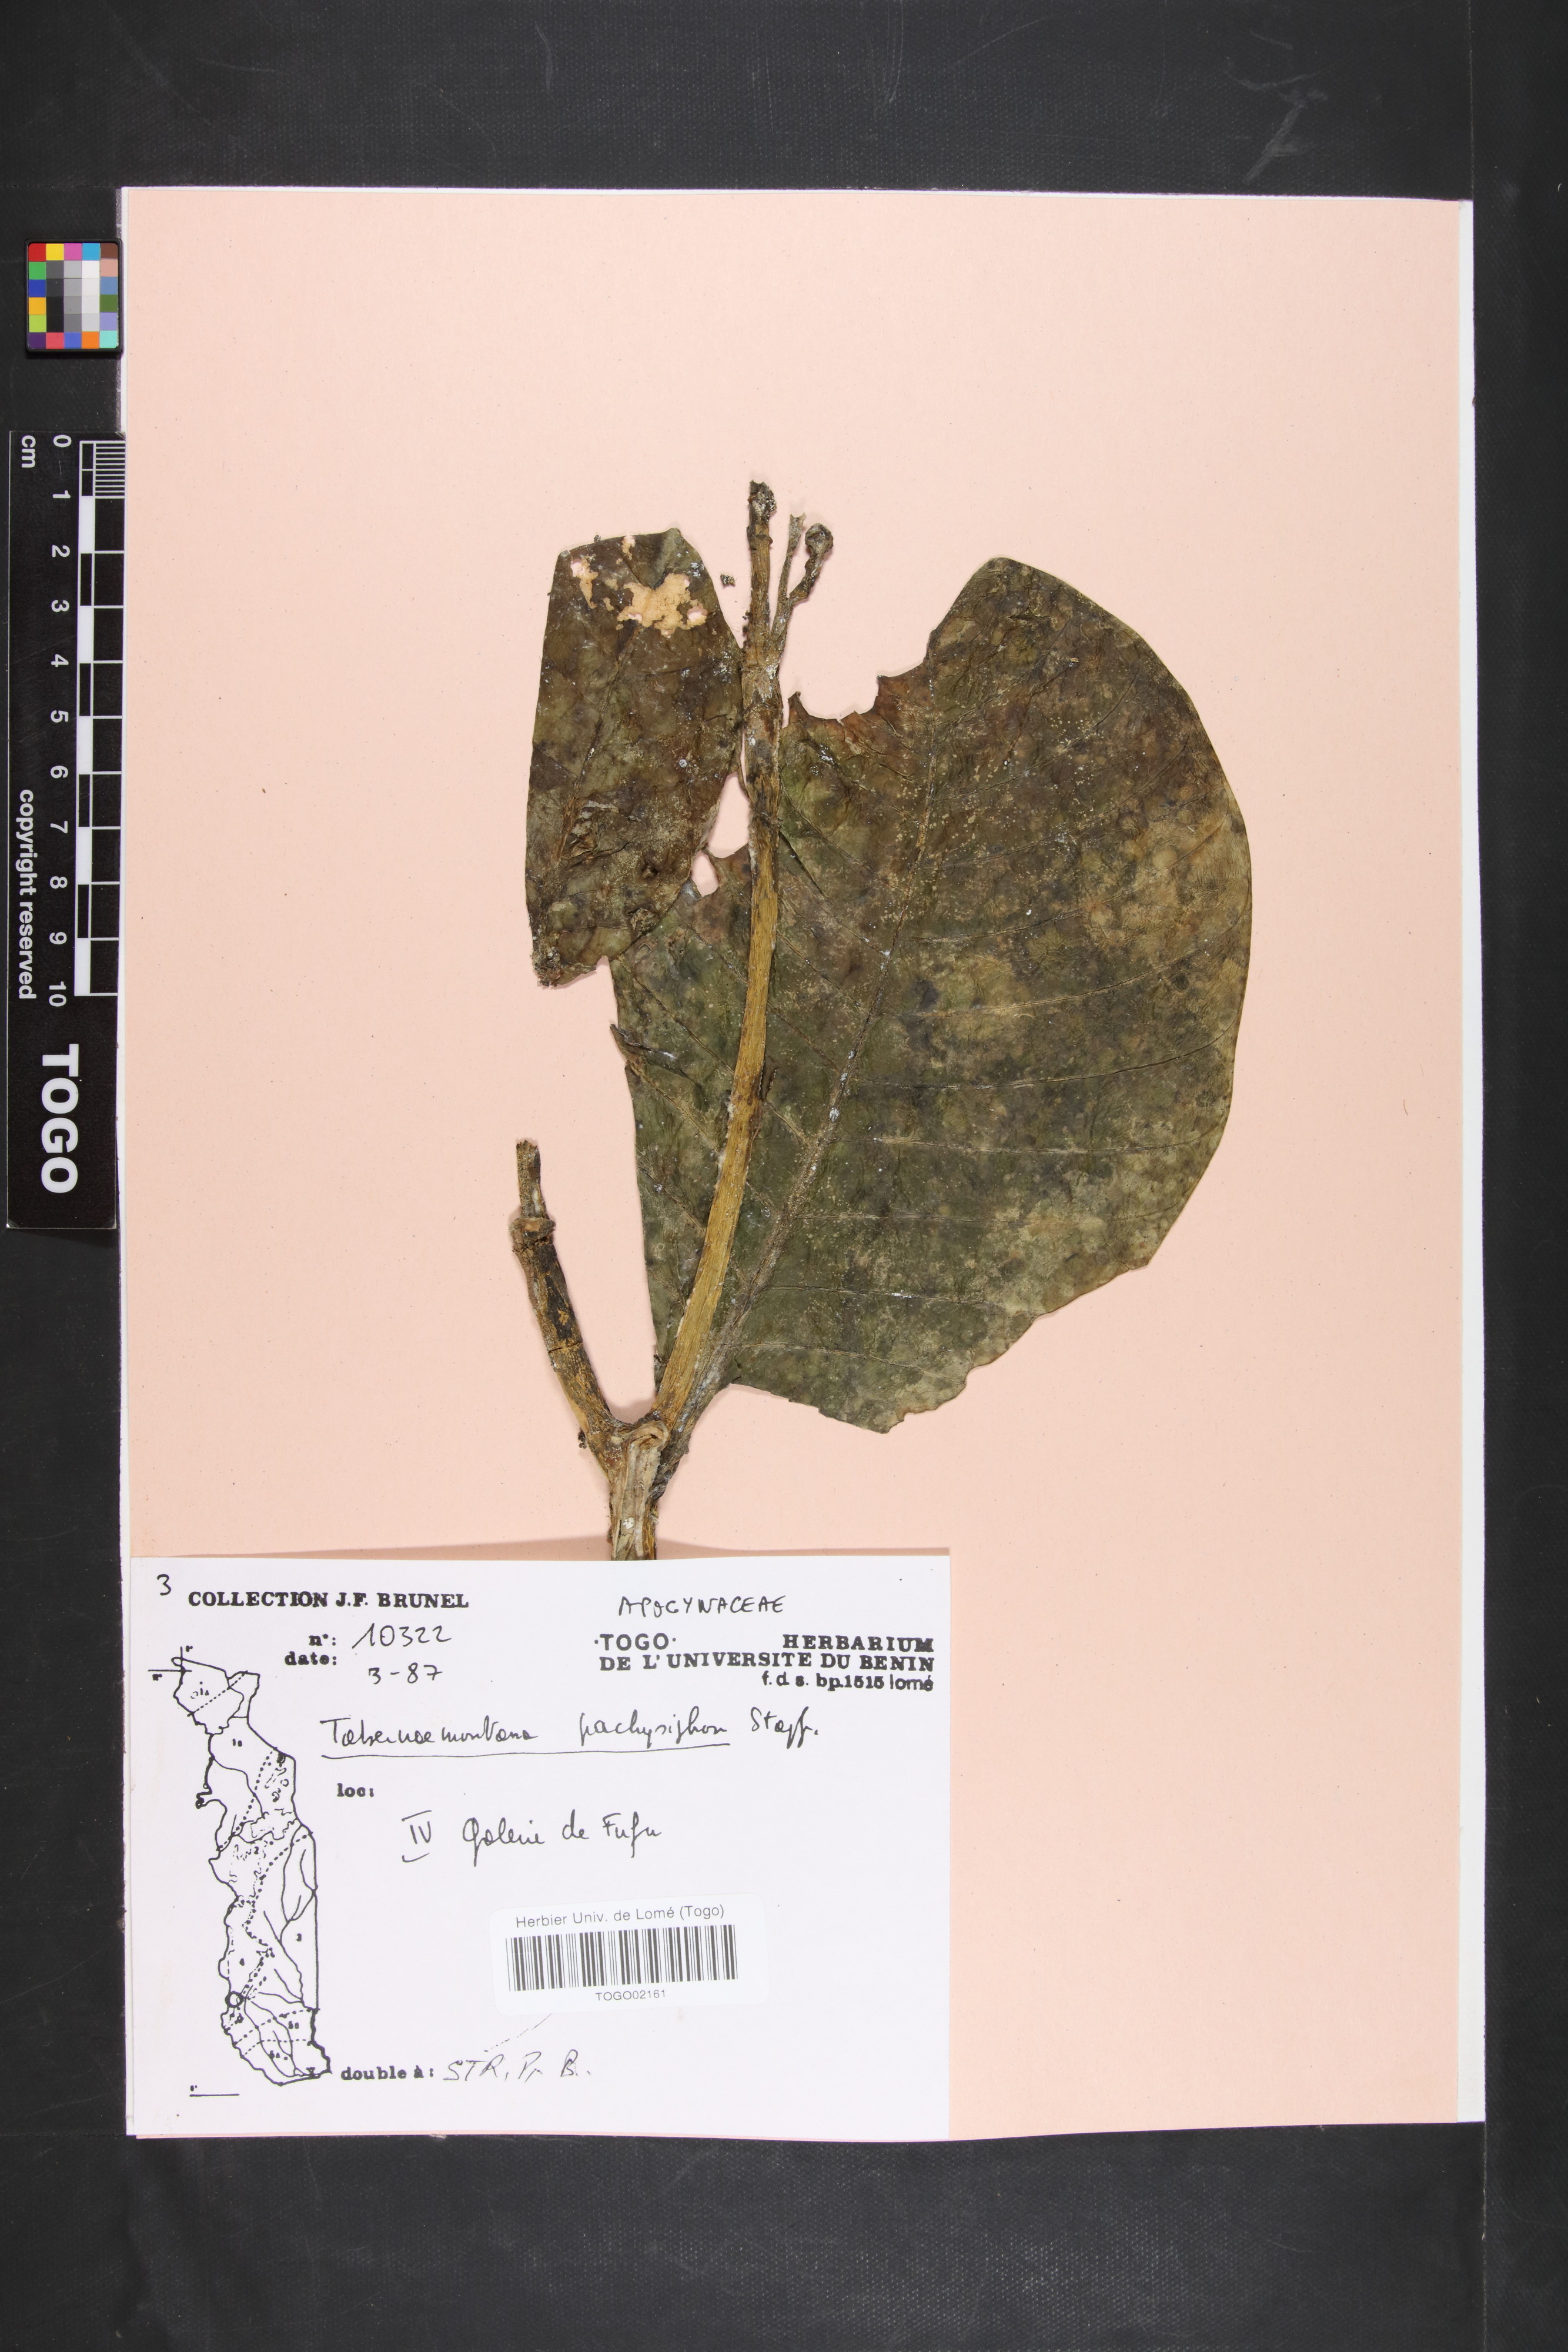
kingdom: Plantae
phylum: Tracheophyta
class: Magnoliopsida
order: Gentianales
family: Apocynaceae
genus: Tabernaemontana
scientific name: Tabernaemontana pachysiphon
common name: Giant pinwheel-flower
